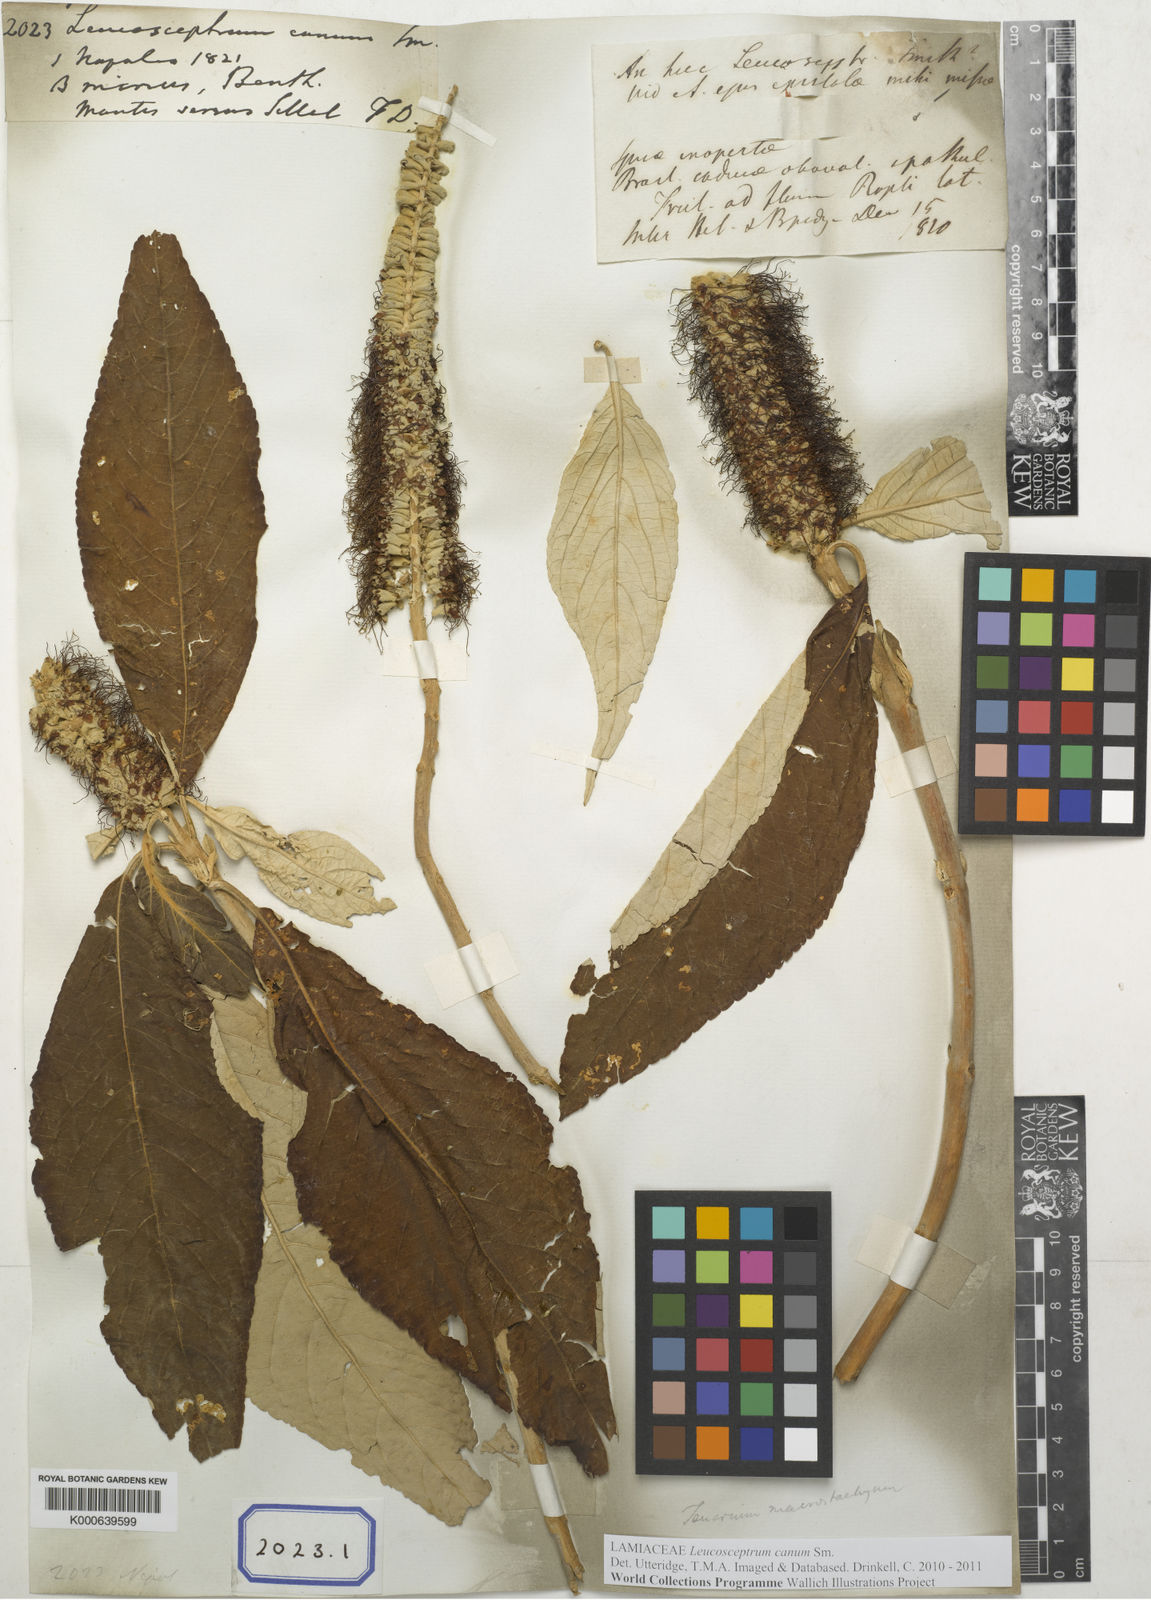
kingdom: Plantae
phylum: Tracheophyta
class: Magnoliopsida
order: Lamiales
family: Lamiaceae
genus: Leucosceptrum
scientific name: Leucosceptrum canum
